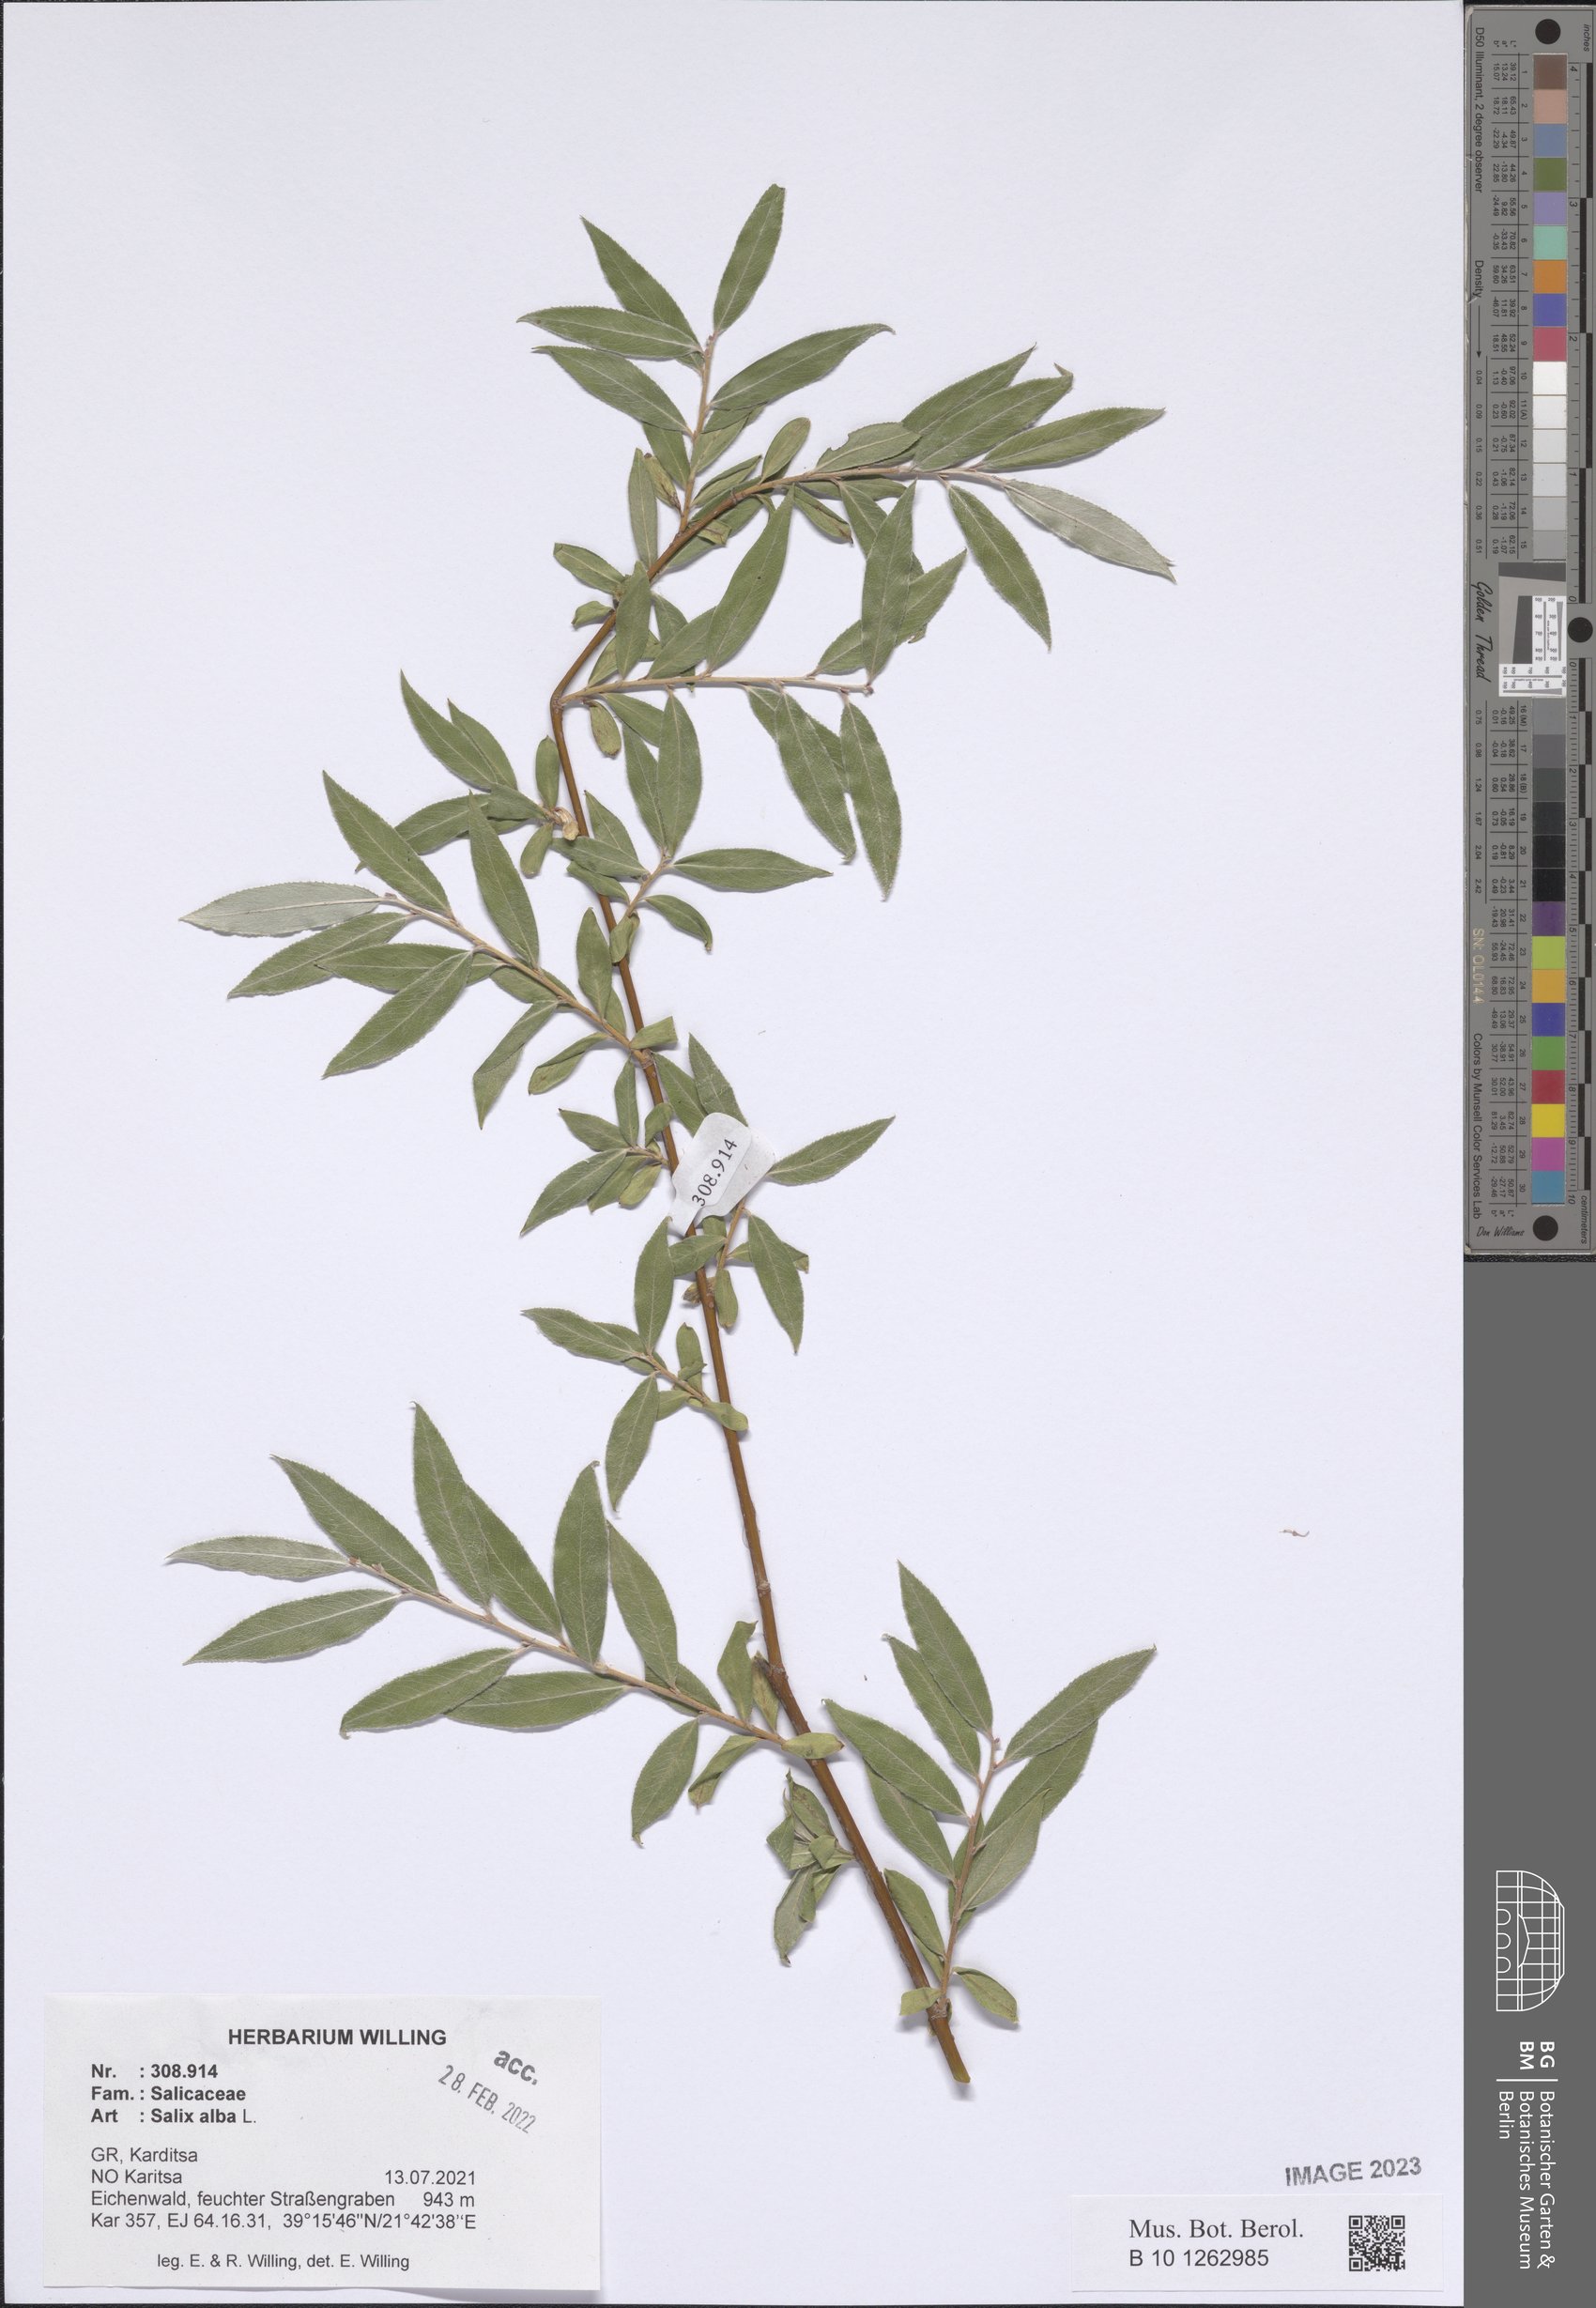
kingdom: Plantae
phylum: Tracheophyta
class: Magnoliopsida
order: Malpighiales
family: Salicaceae
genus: Salix
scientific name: Salix alba
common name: White willow
